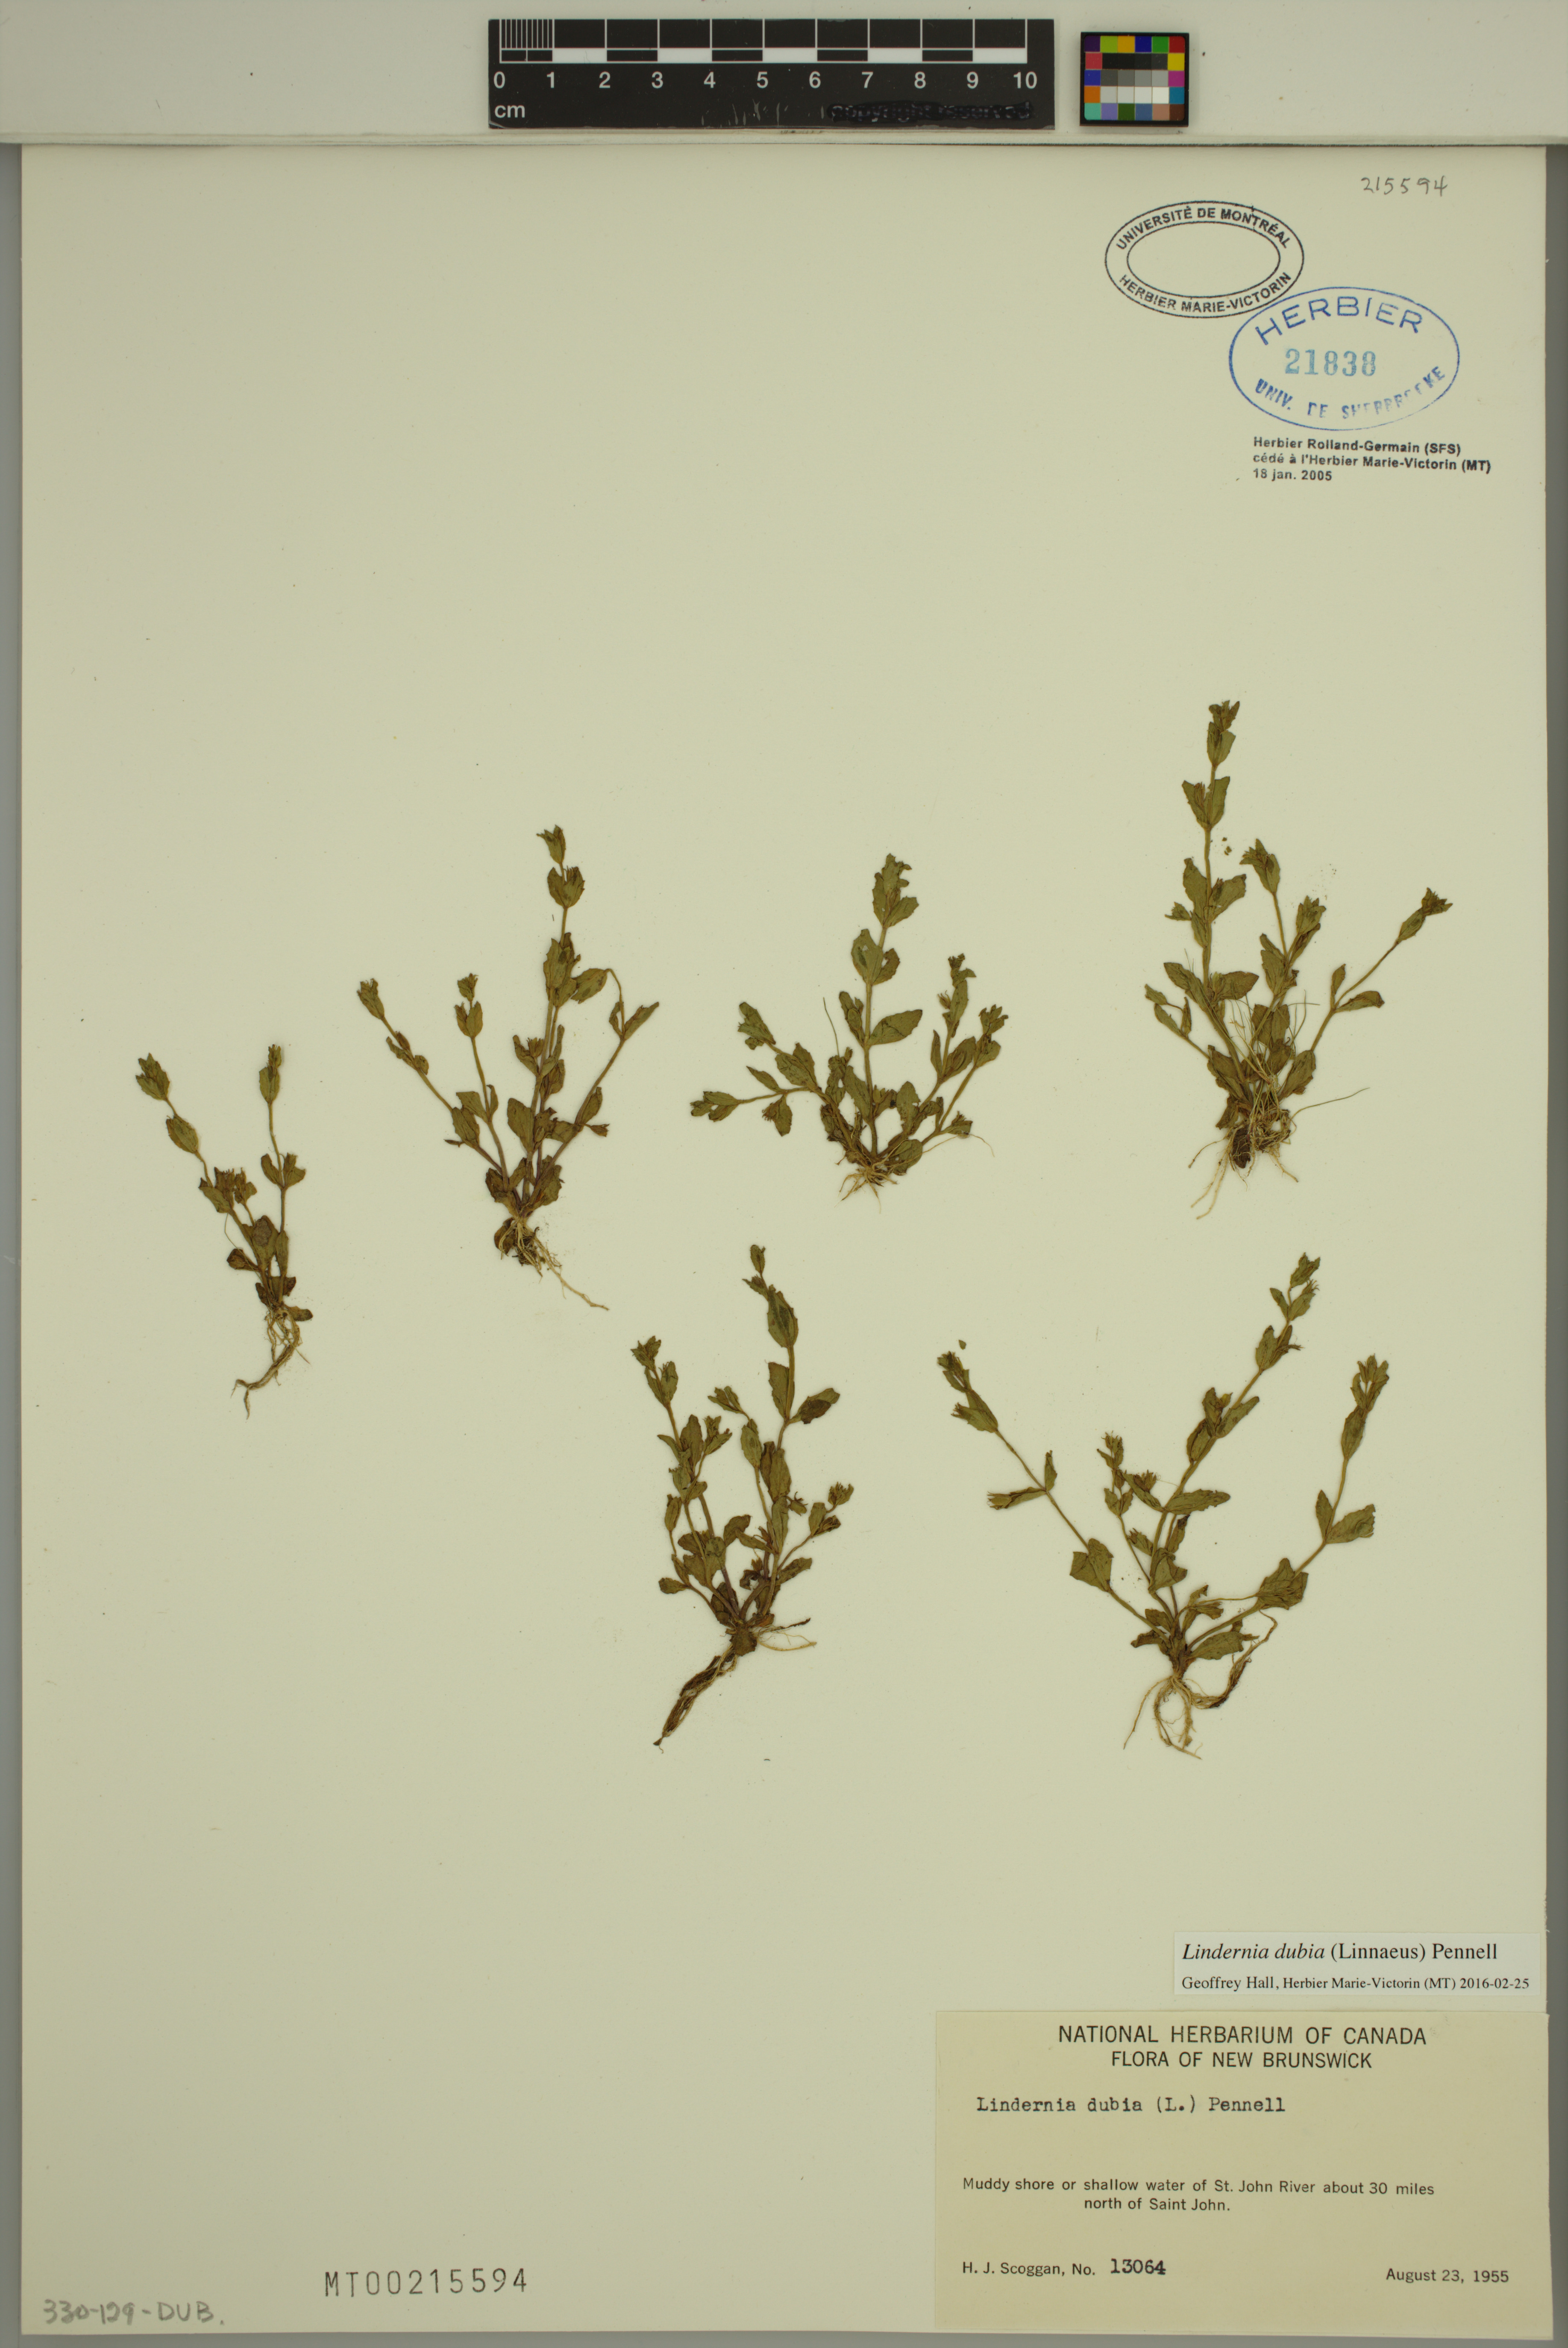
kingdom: Plantae
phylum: Tracheophyta
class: Magnoliopsida
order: Lamiales
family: Linderniaceae
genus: Lindernia
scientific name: Lindernia dubia
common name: Annual false pimpernel
